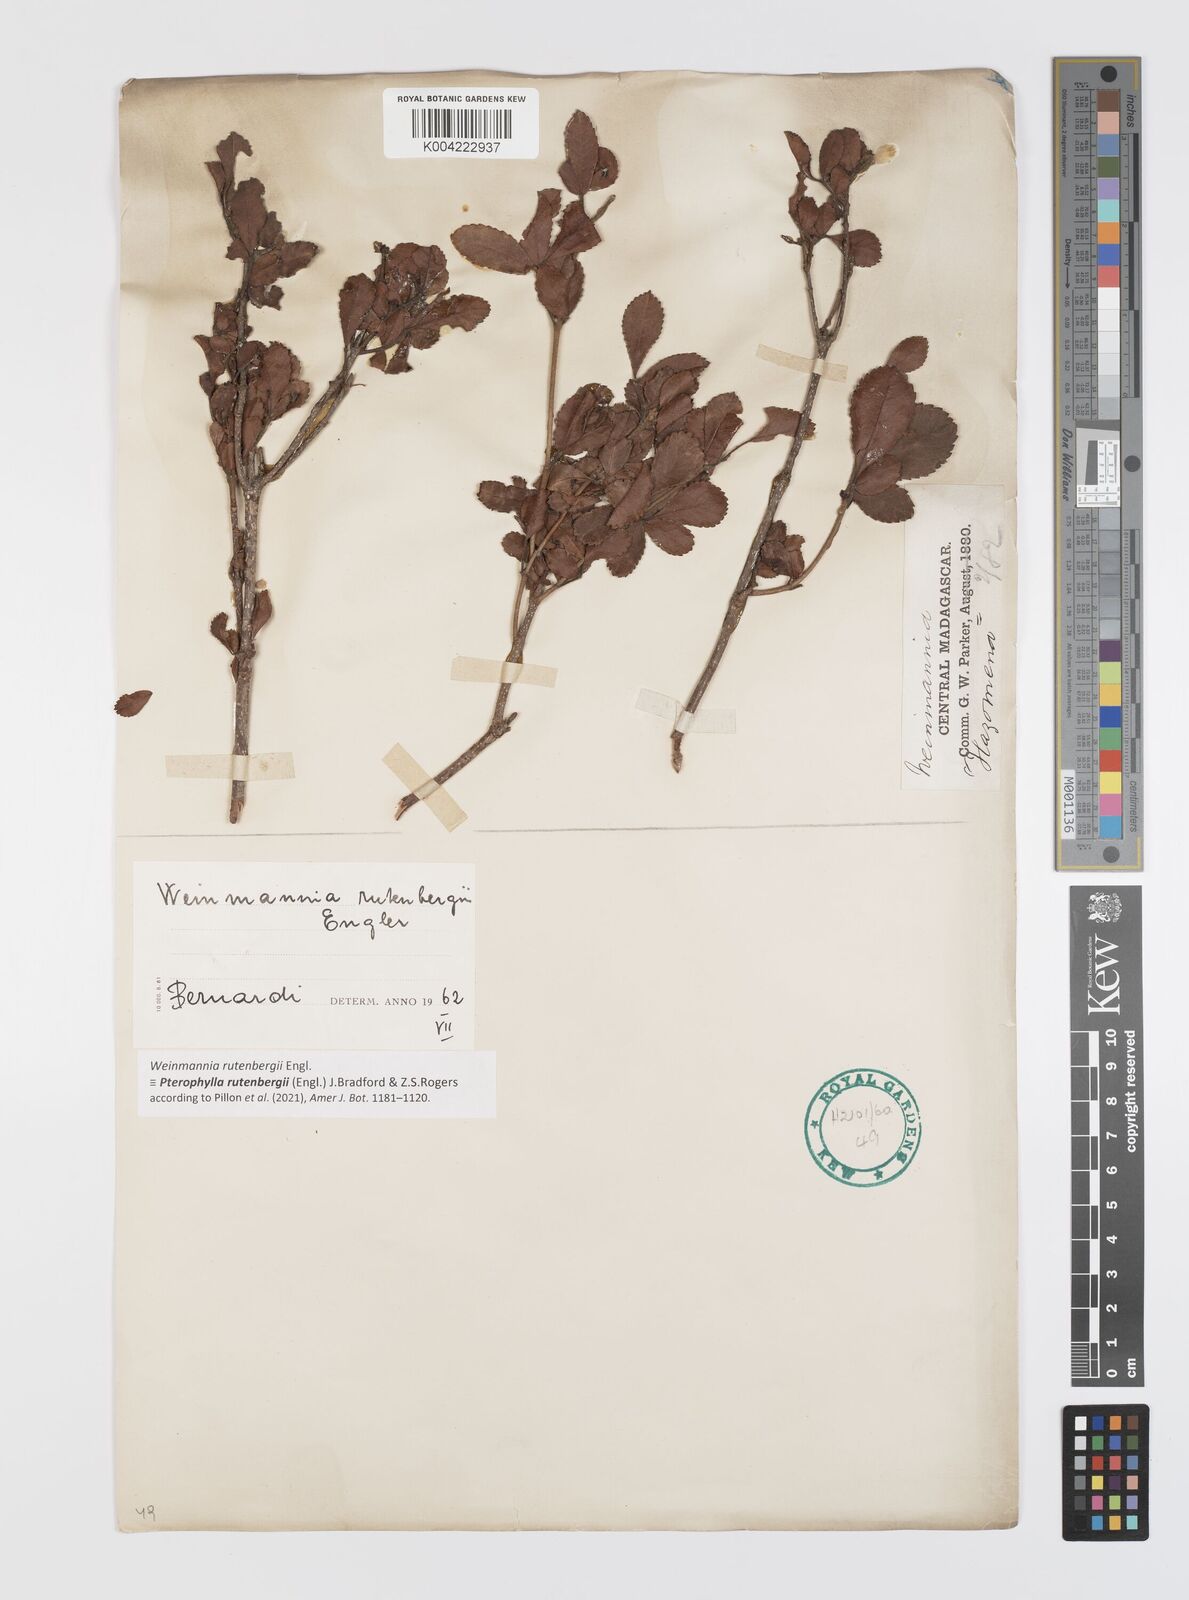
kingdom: Plantae
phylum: Tracheophyta
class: Magnoliopsida
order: Oxalidales
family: Cunoniaceae
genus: Pterophylla
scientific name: Pterophylla rutenbergii
